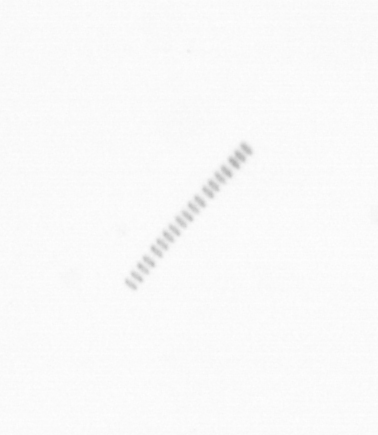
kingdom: Chromista
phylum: Ochrophyta
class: Bacillariophyceae
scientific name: Bacillariophyceae
